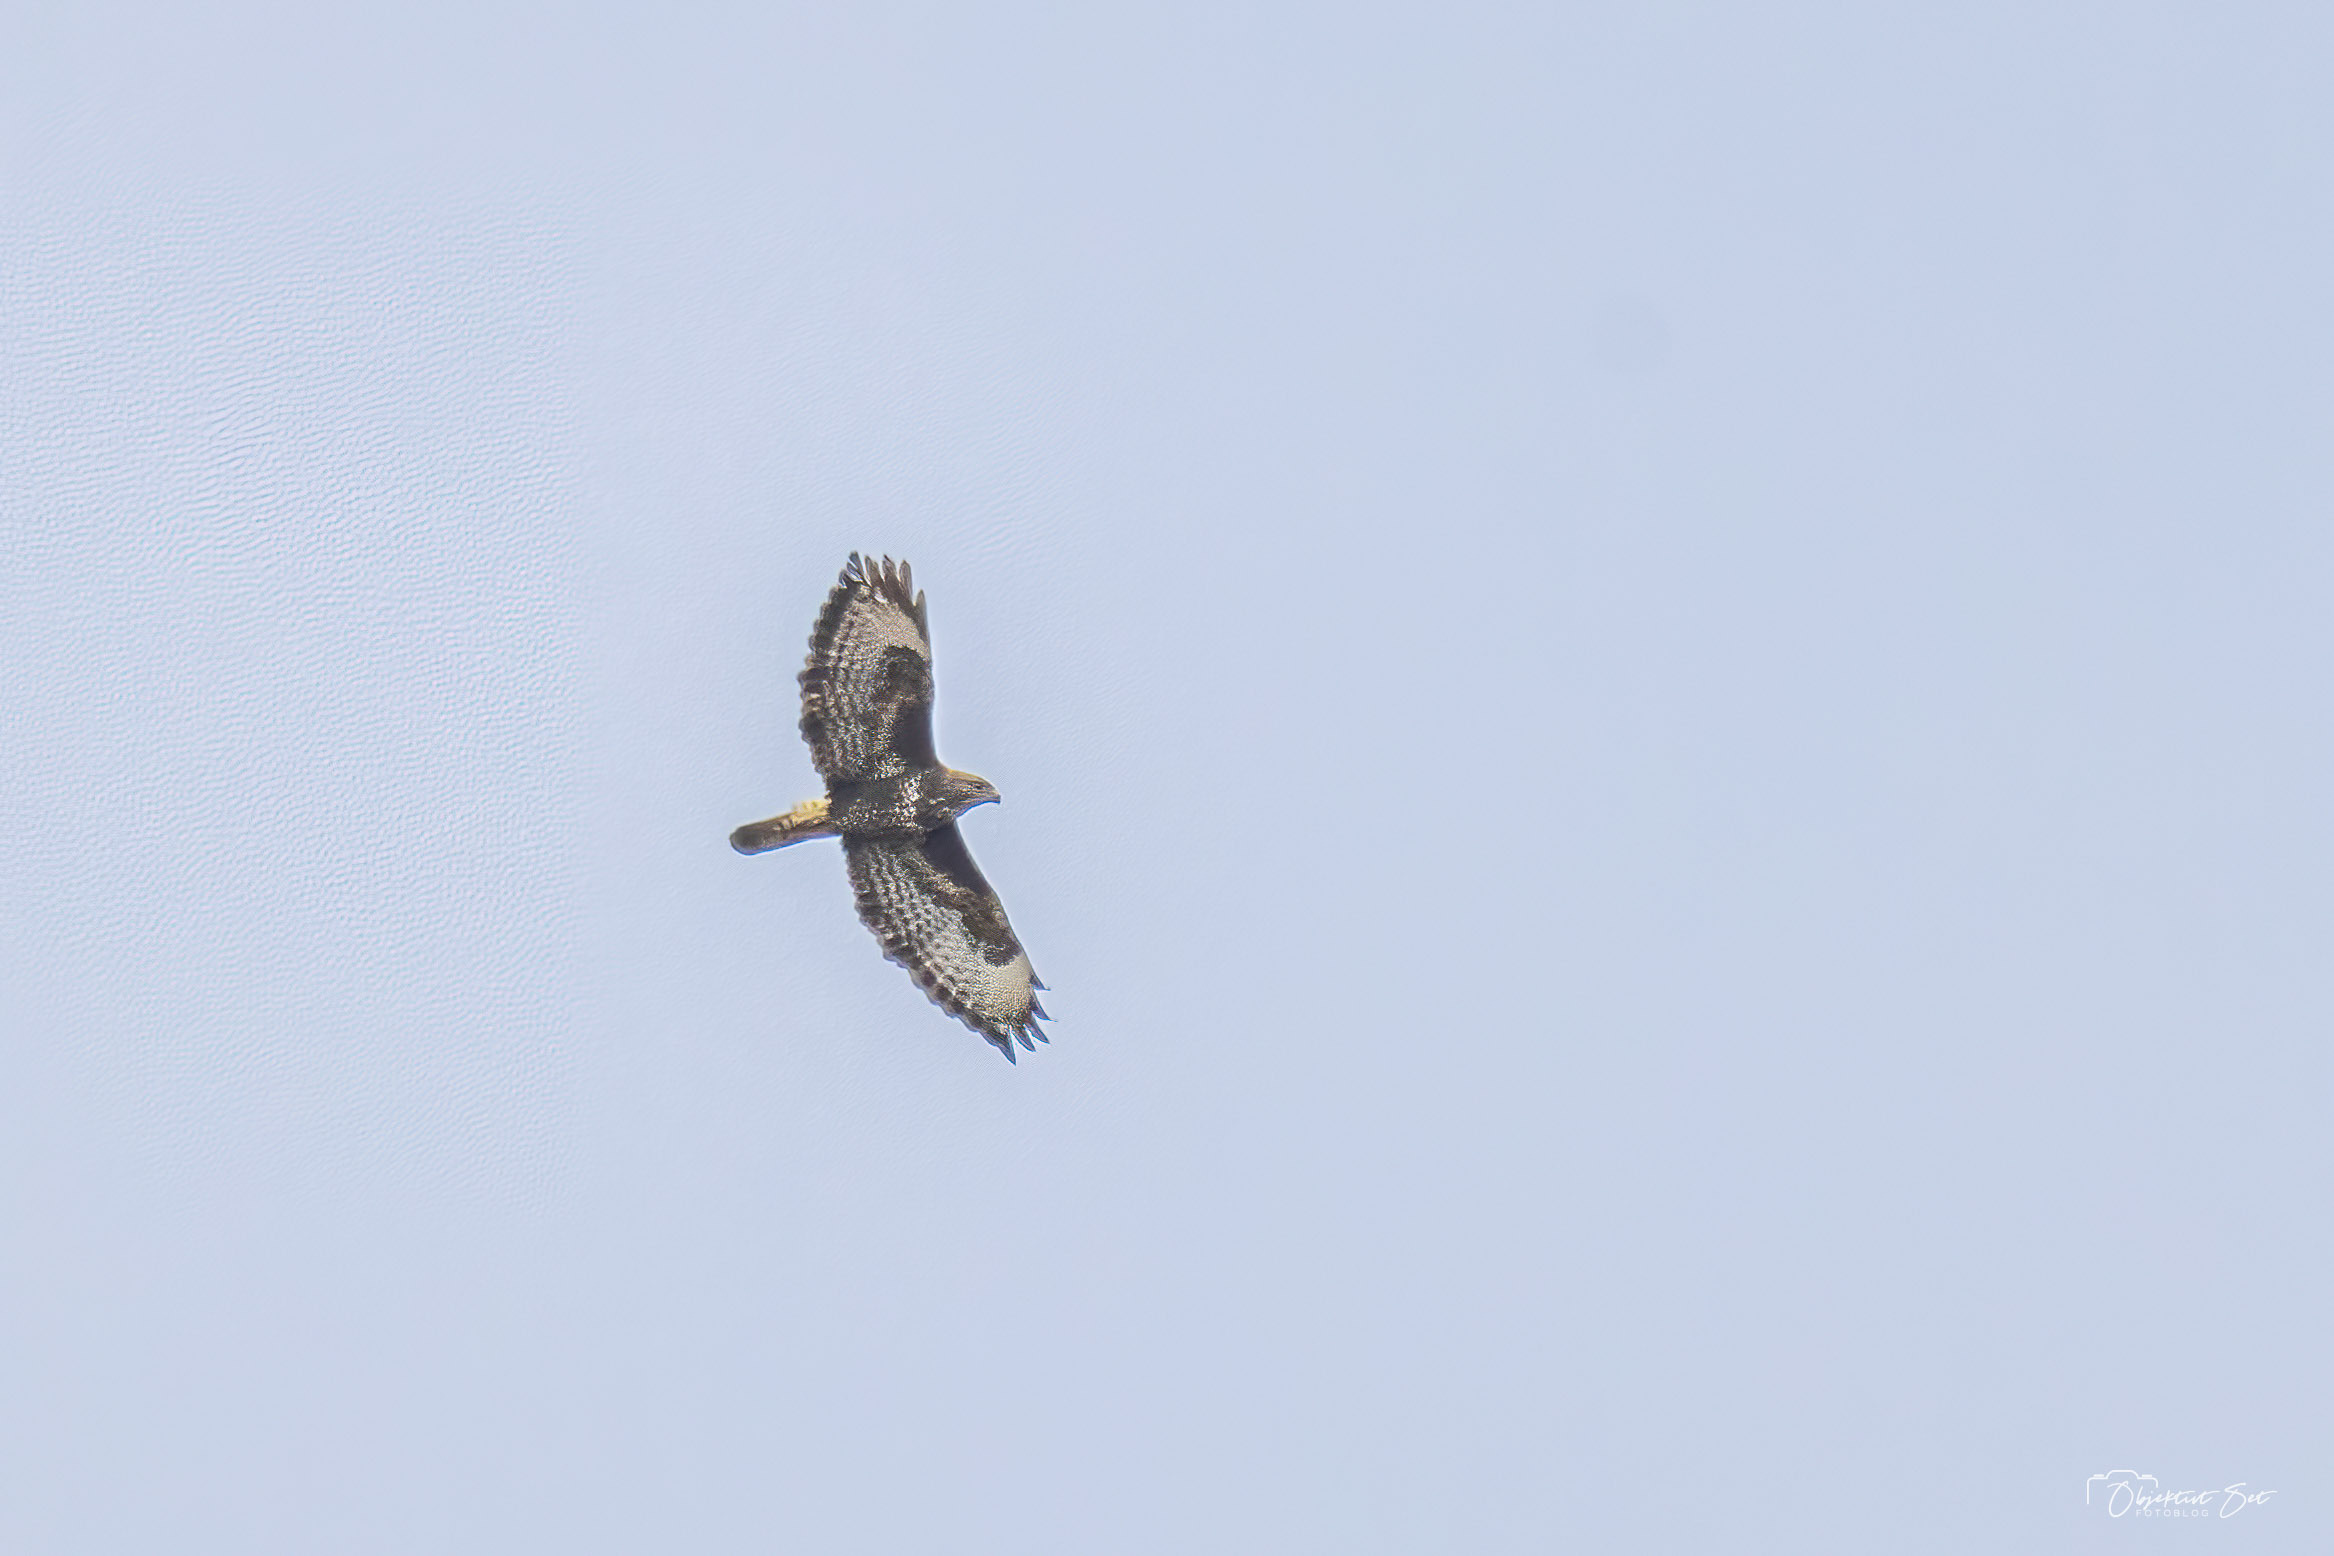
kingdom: Animalia
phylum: Chordata
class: Aves
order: Accipitriformes
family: Accipitridae
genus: Buteo
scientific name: Buteo buteo
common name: Musvåge
